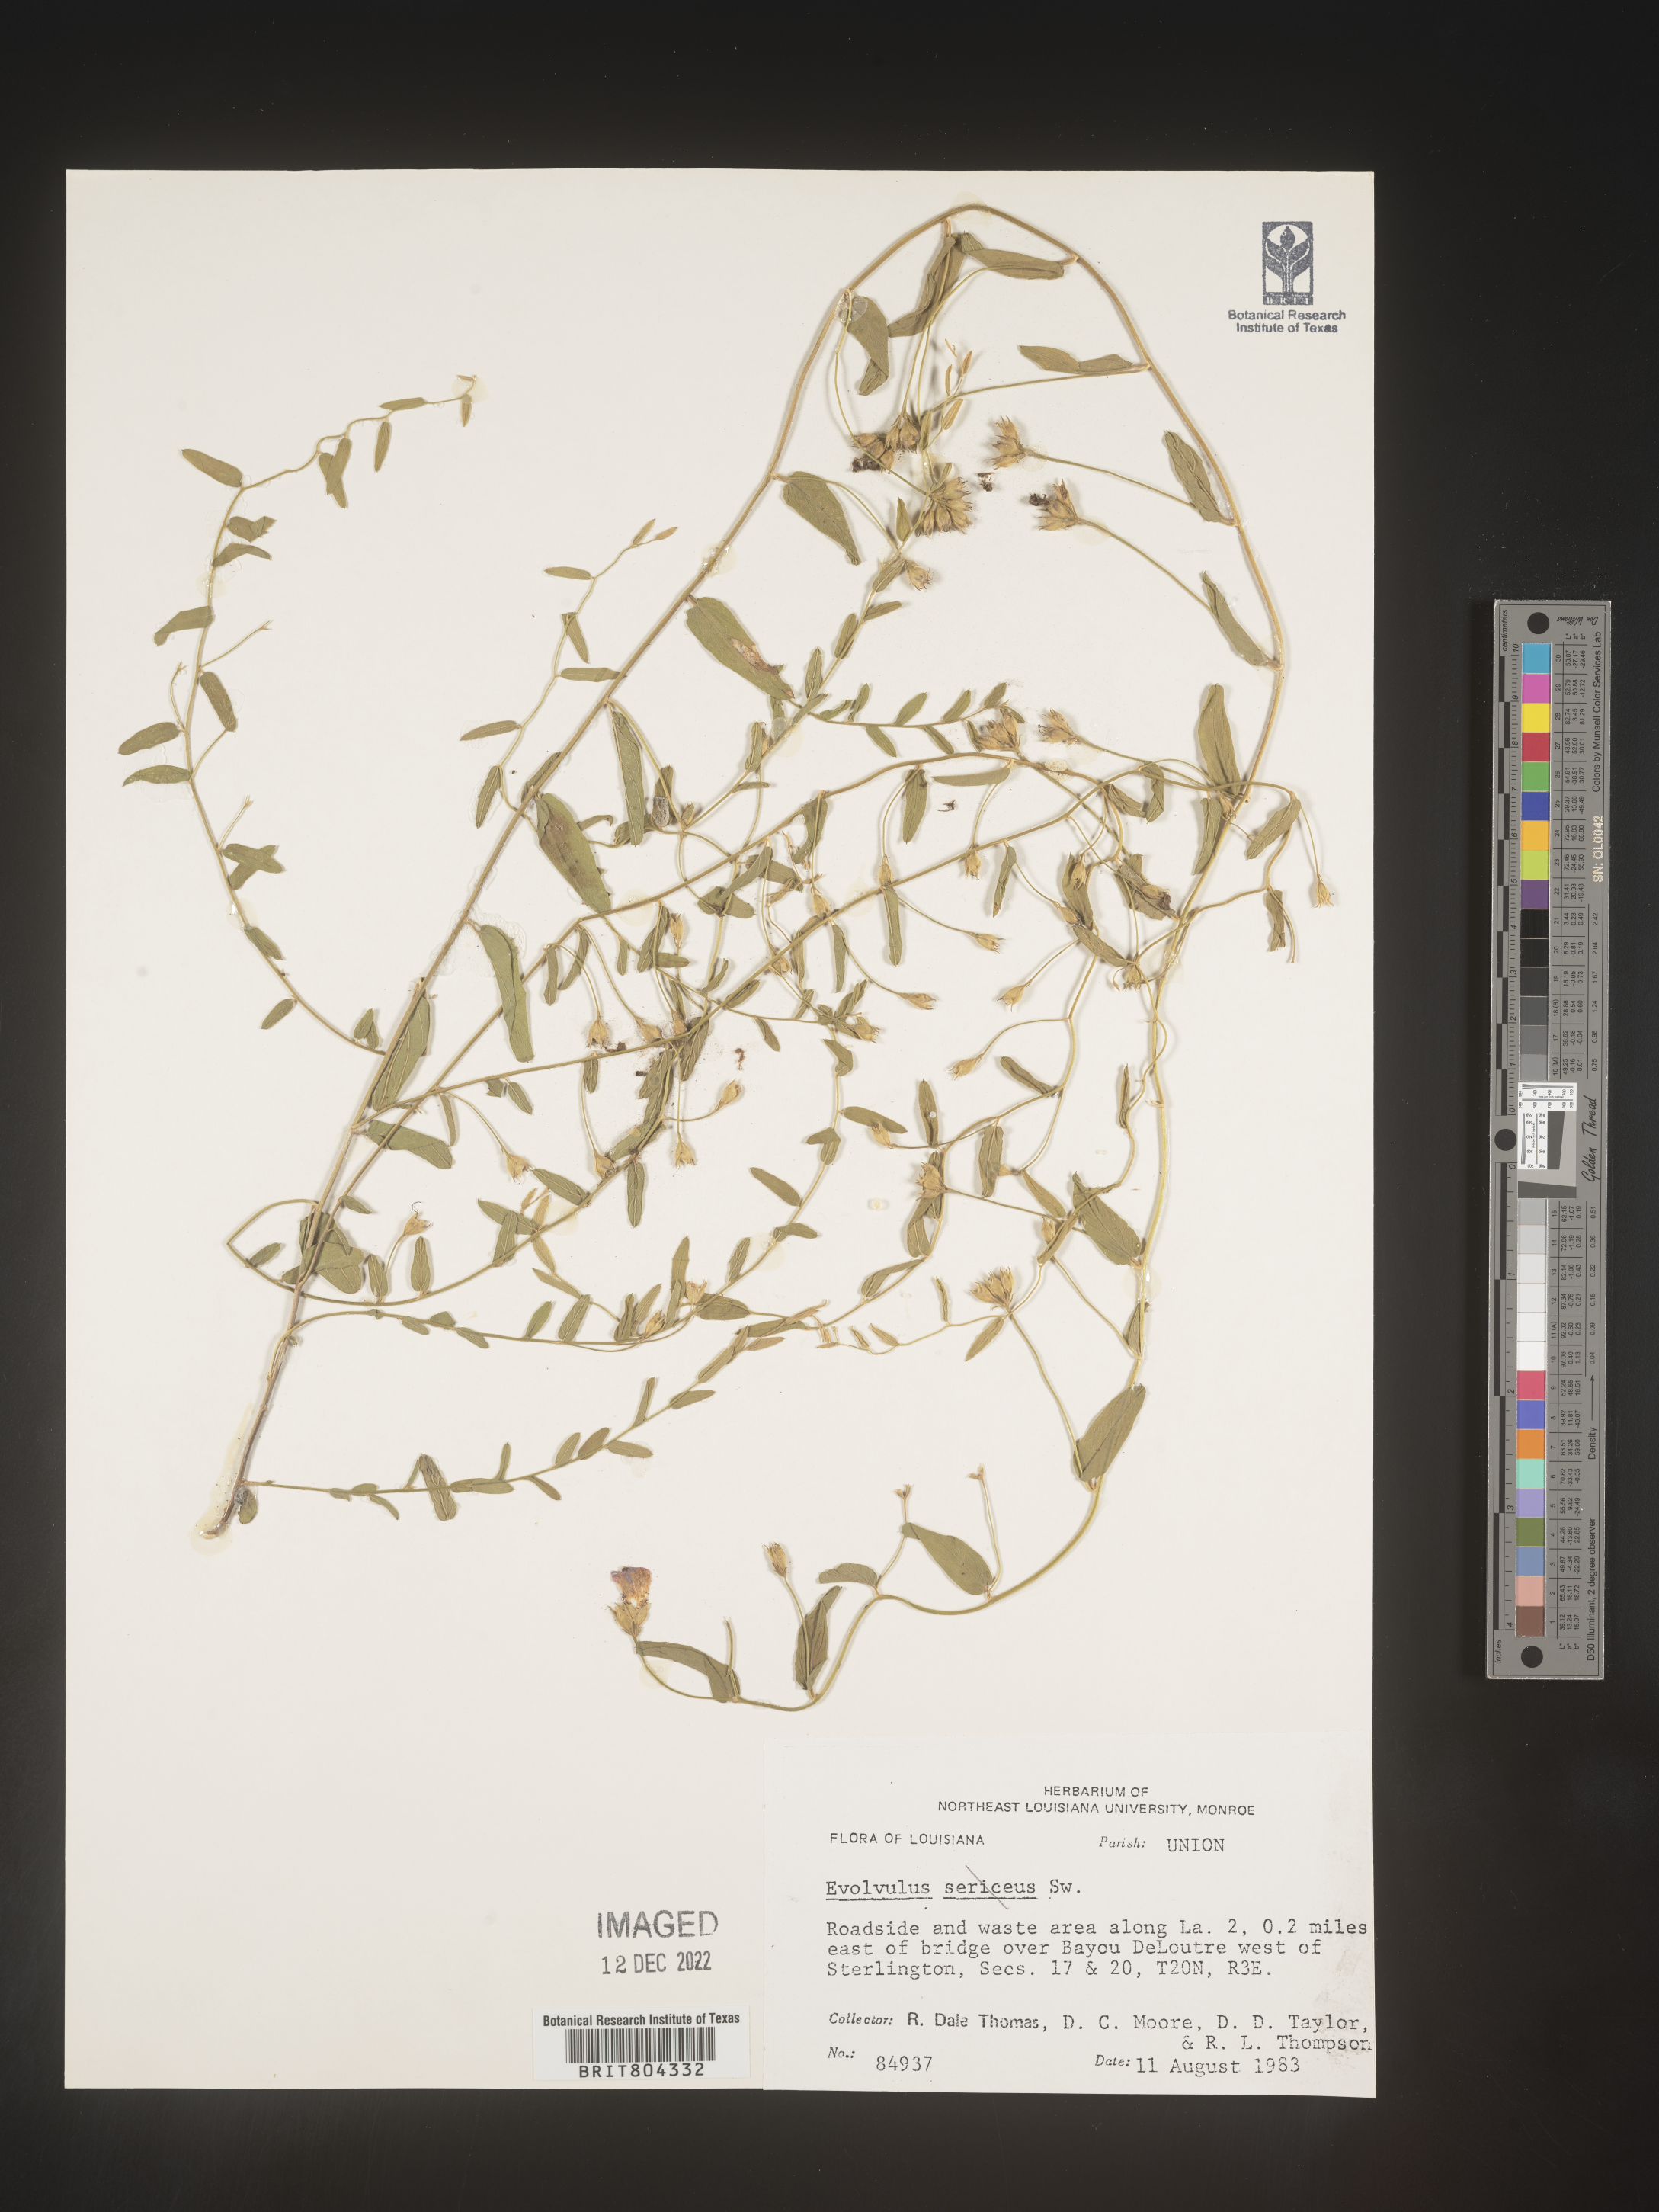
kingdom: Plantae
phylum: Tracheophyta
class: Magnoliopsida
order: Solanales
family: Convolvulaceae
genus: Evolvulus
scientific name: Evolvulus convolvuloides
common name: Bindweed dwarf morning-glory
